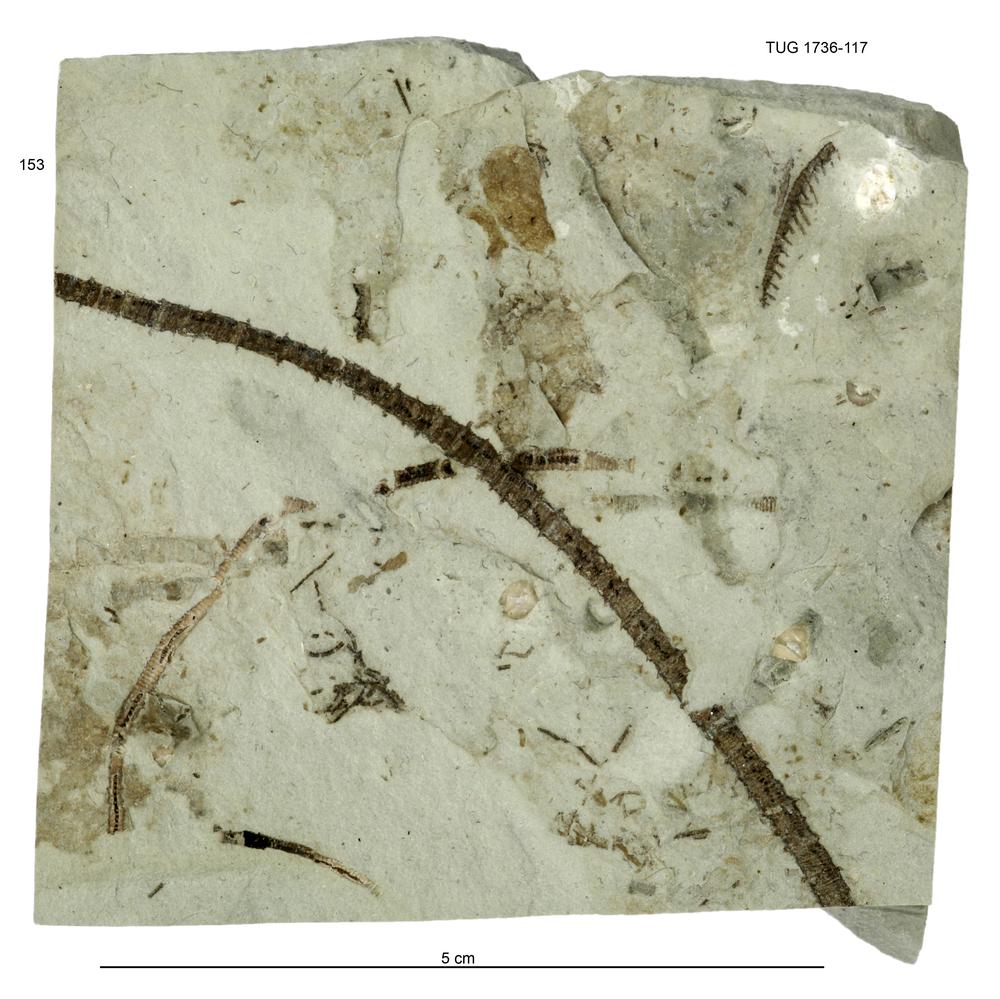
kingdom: Animalia
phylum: Echinodermata
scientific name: Echinodermata
